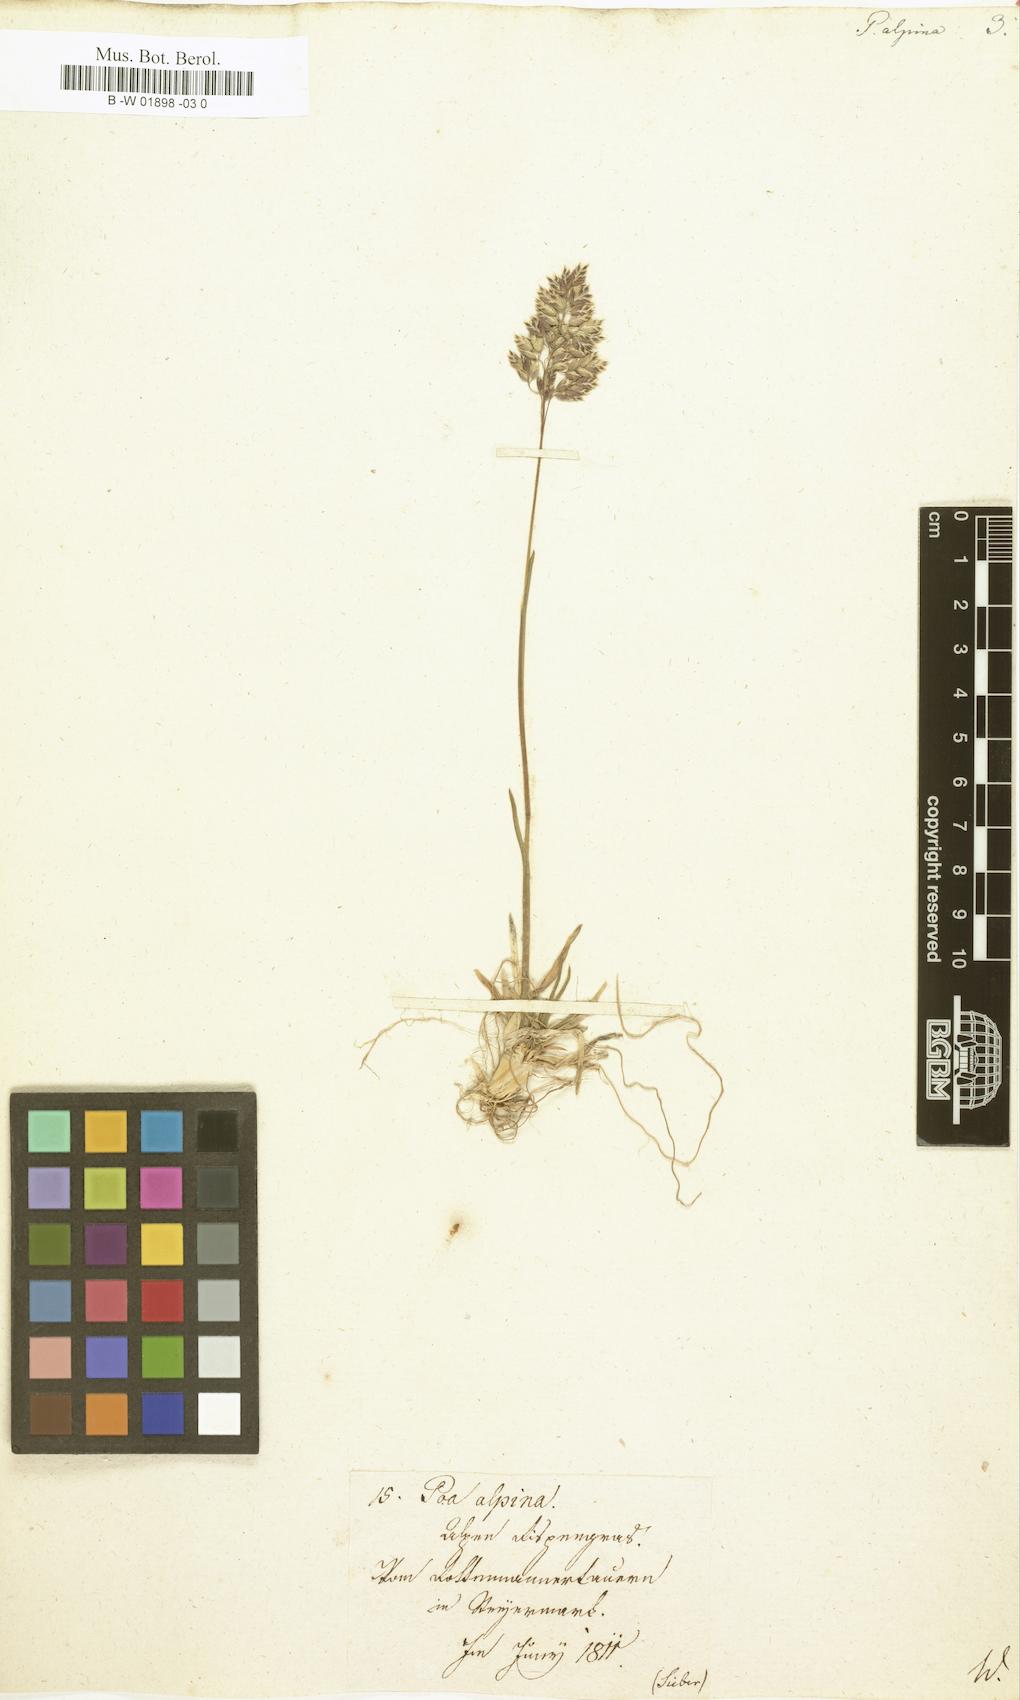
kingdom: Plantae
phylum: Tracheophyta
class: Liliopsida
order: Poales
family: Poaceae
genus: Poa
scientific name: Poa alpina
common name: Alpine bluegrass
